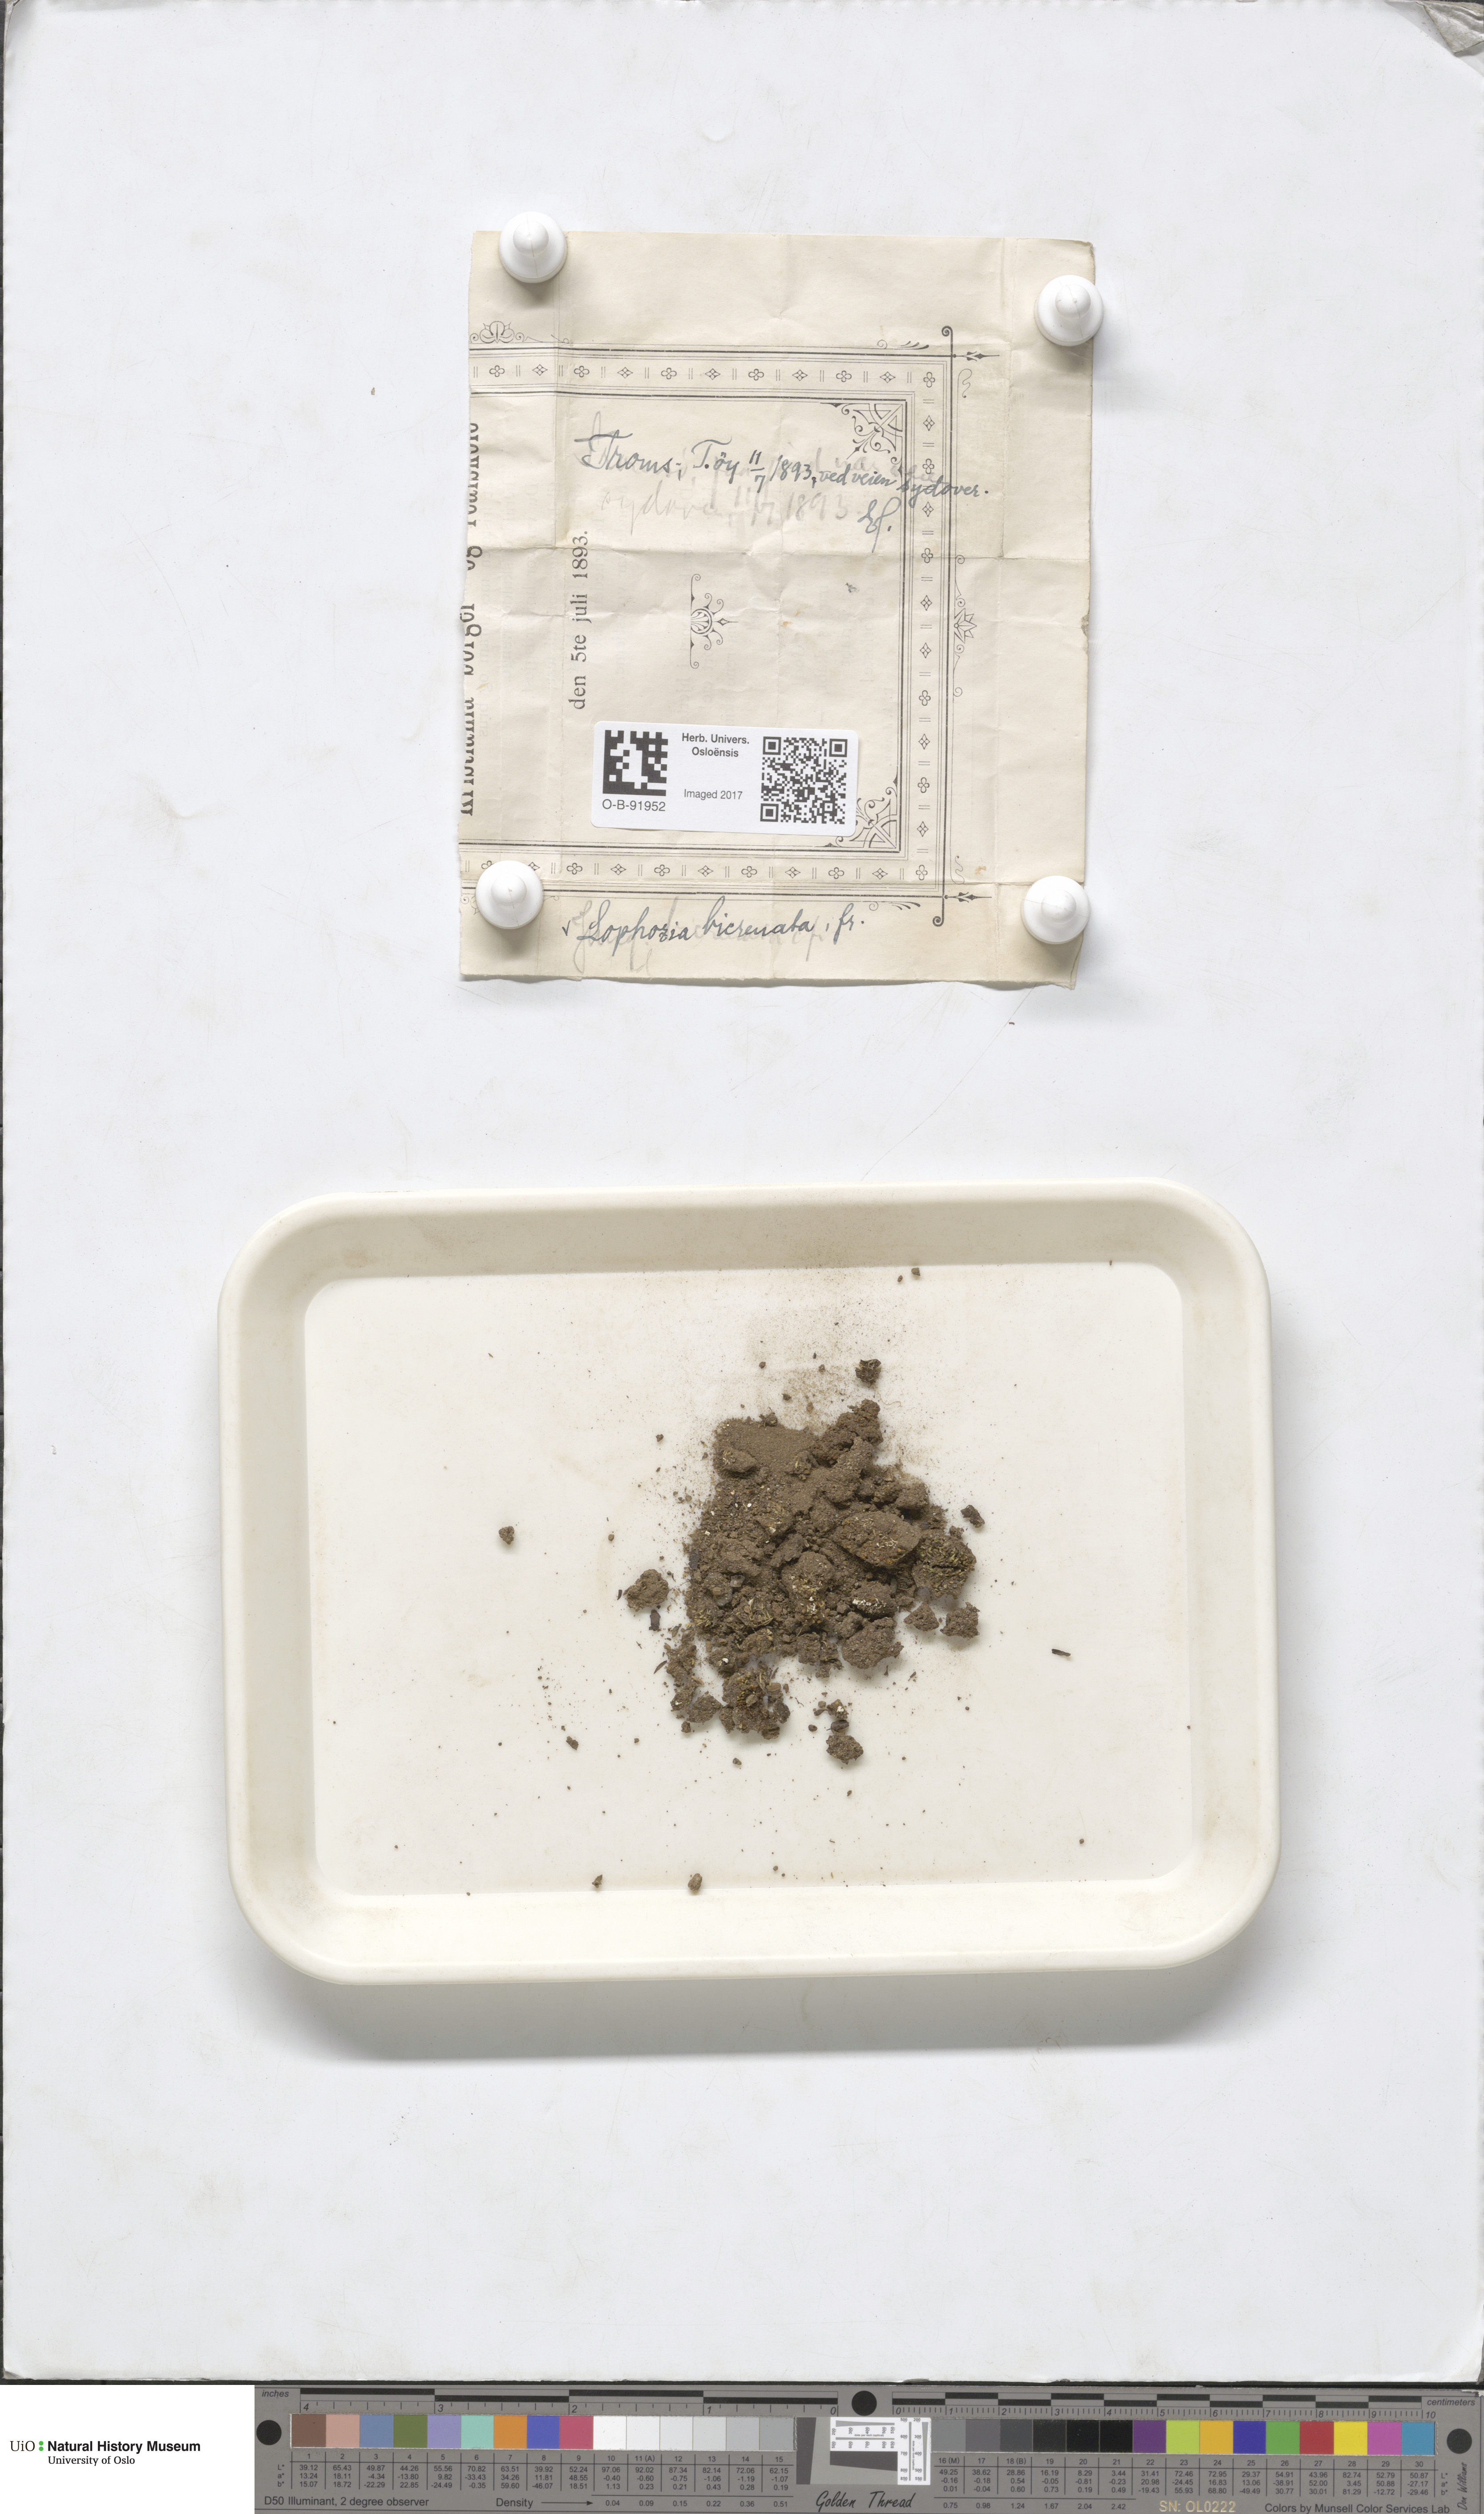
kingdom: Plantae
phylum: Marchantiophyta
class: Jungermanniopsida
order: Jungermanniales
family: Anastrophyllaceae
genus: Isopaches
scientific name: Isopaches bicrenatus
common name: Lesser notchwort
